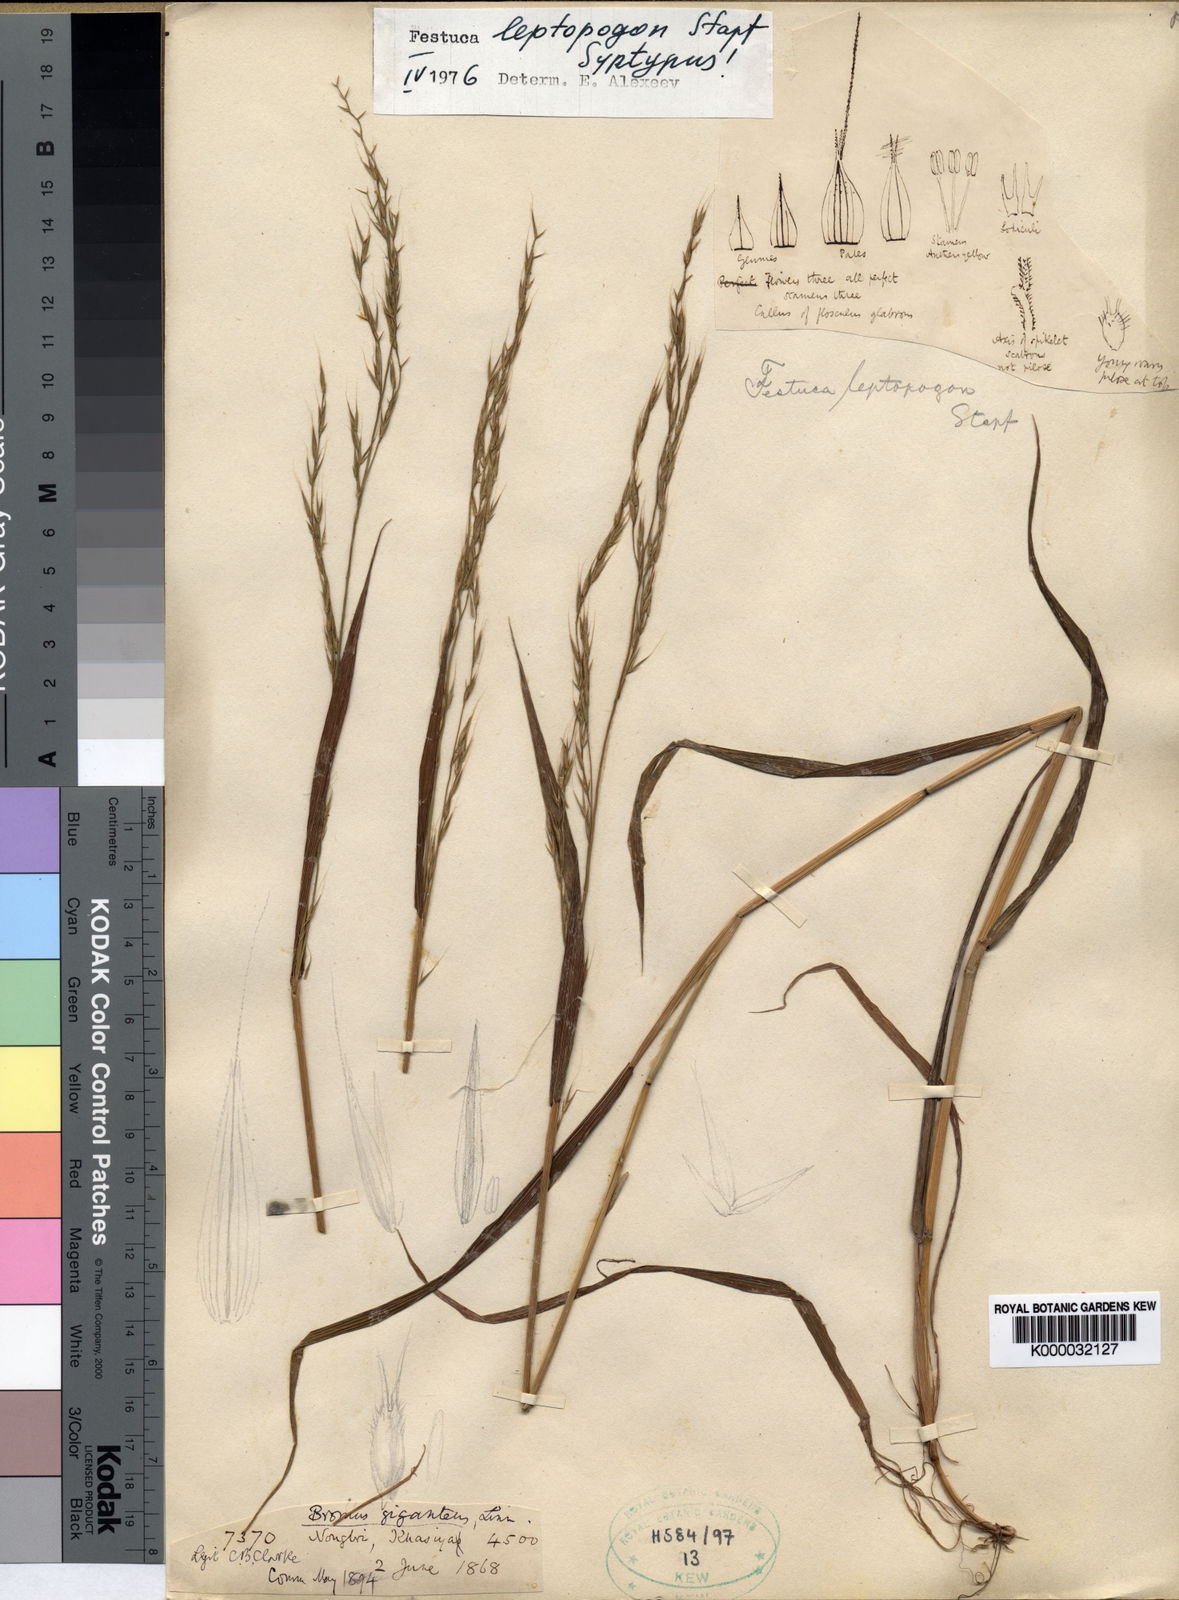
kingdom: Plantae
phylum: Tracheophyta
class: Liliopsida
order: Poales
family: Poaceae
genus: Festuca
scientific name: Festuca leptopogon
